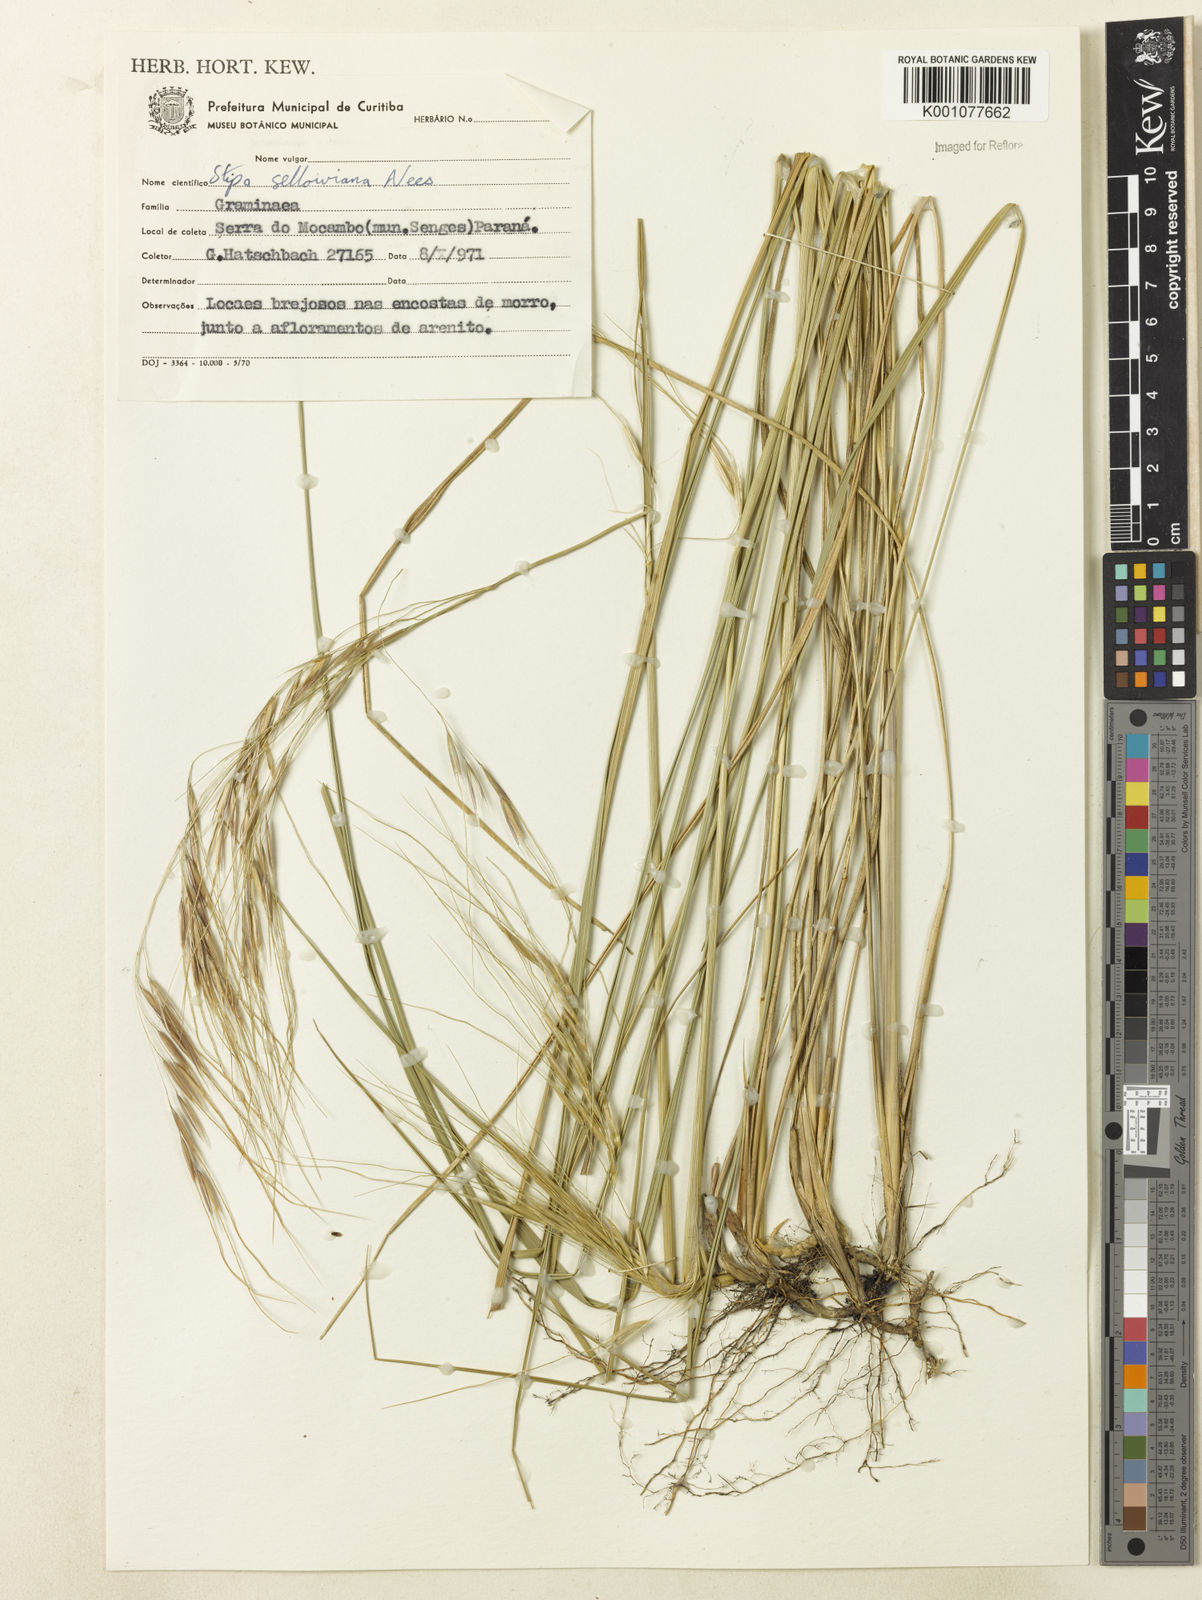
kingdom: Plantae
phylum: Tracheophyta
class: Liliopsida
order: Poales
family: Poaceae
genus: Nassella
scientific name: Nassella
